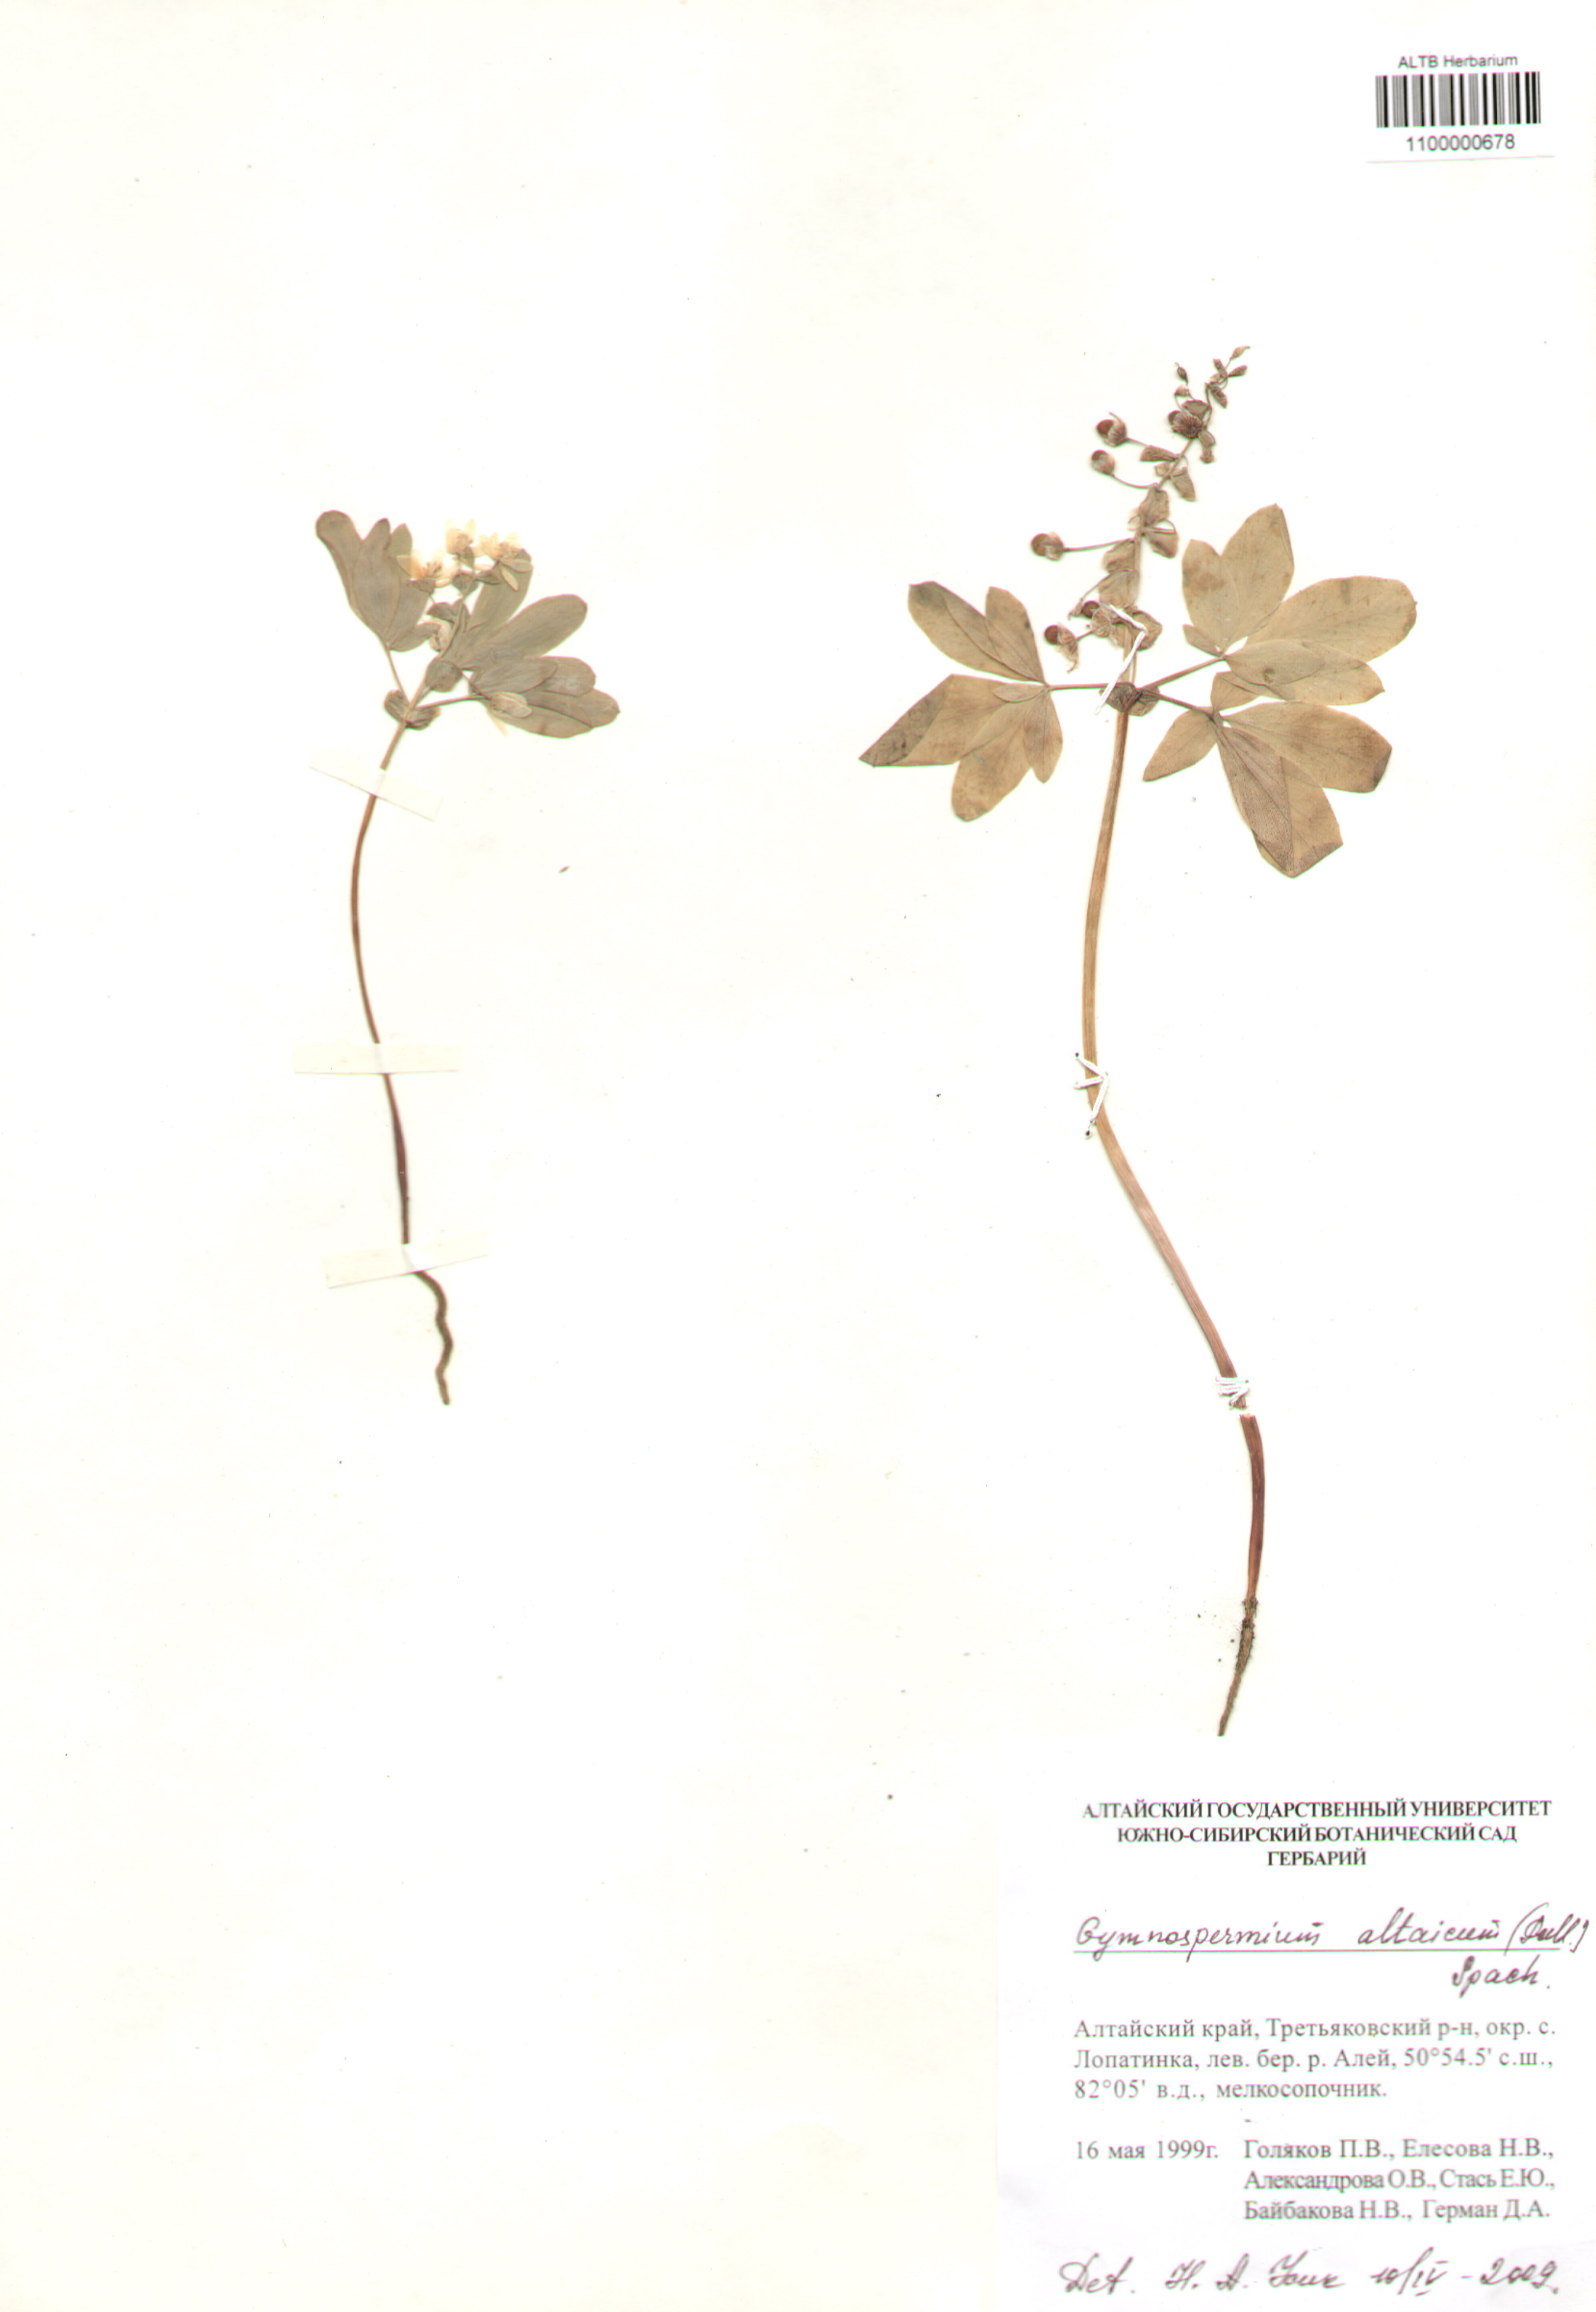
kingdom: Plantae
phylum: Tracheophyta
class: Magnoliopsida
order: Ranunculales
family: Berberidaceae
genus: Gymnospermium
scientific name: Gymnospermium altaicum
